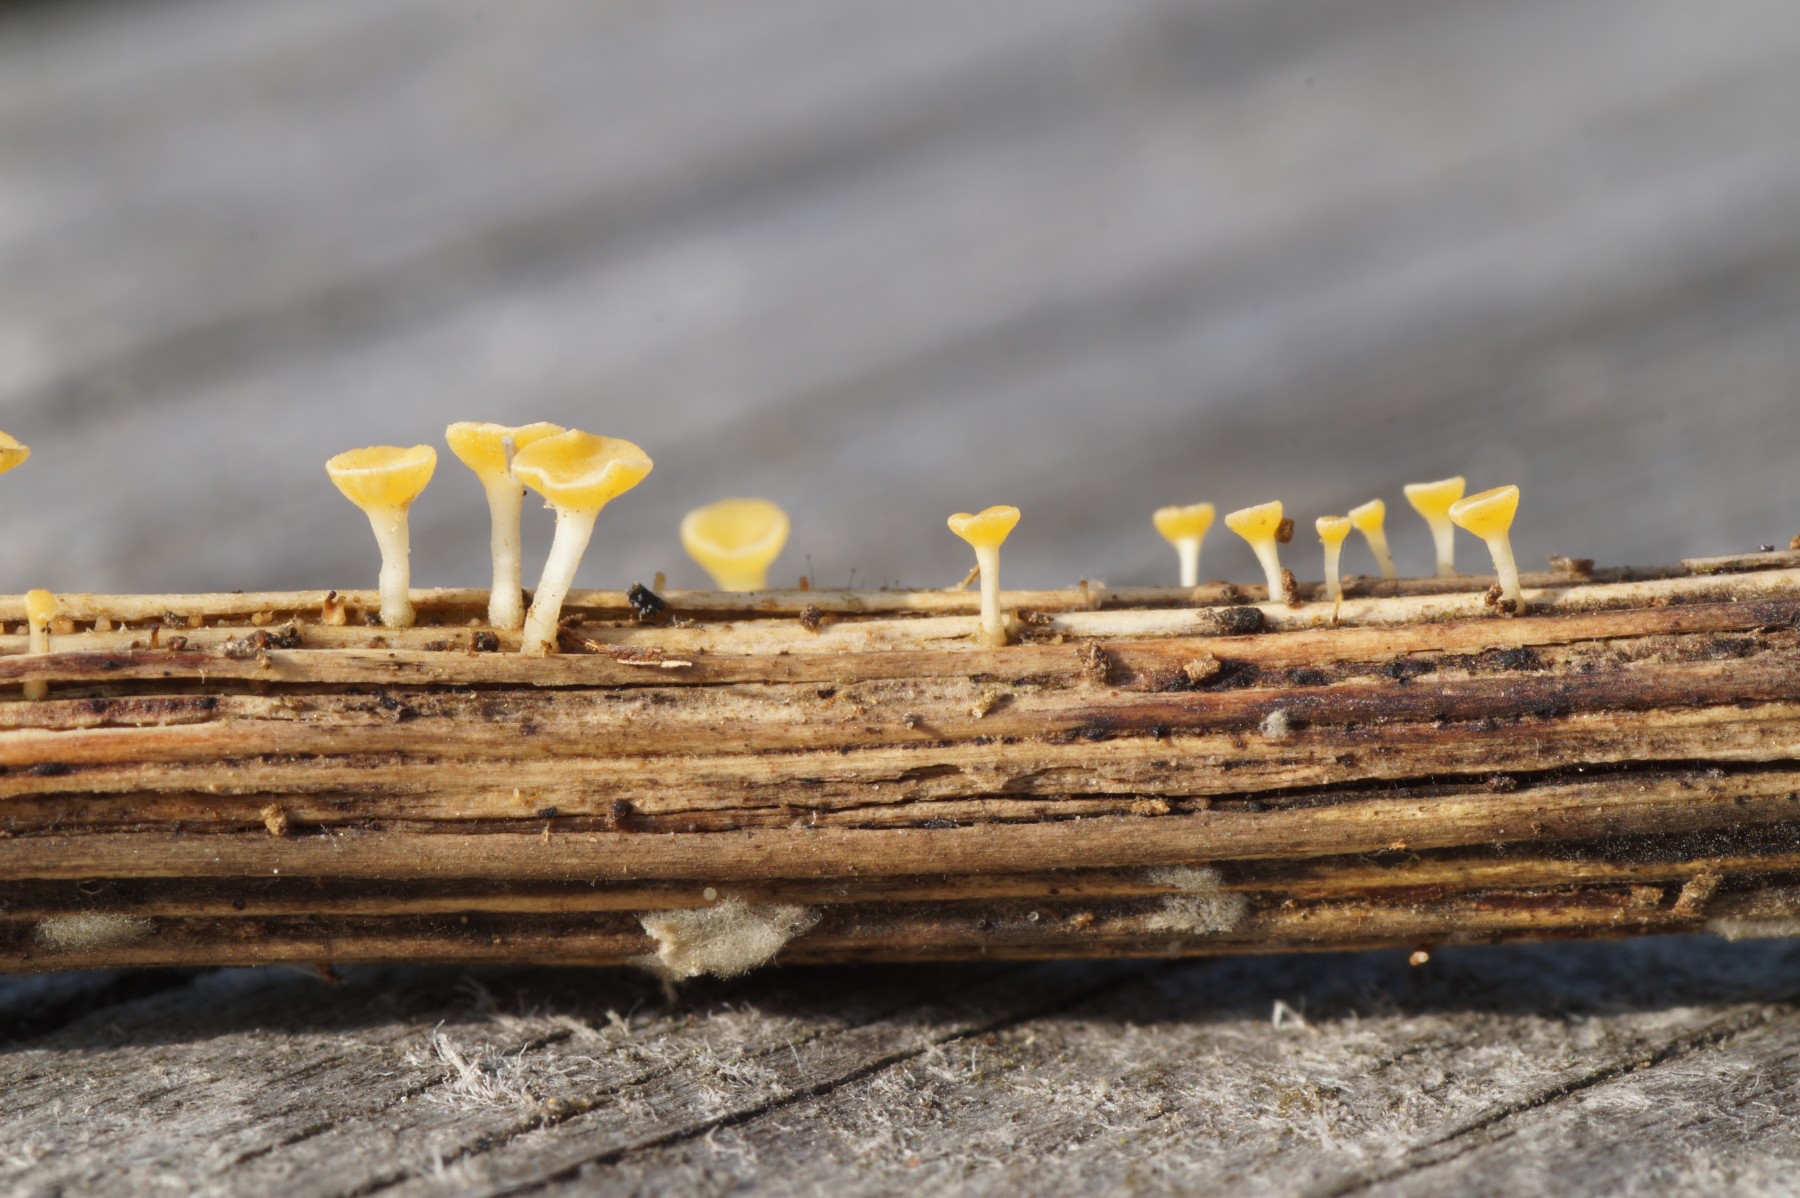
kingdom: Fungi
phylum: Ascomycota
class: Leotiomycetes
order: Helotiales
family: Helotiaceae
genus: Hymenoscyphus
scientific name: Hymenoscyphus
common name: stilkskive
